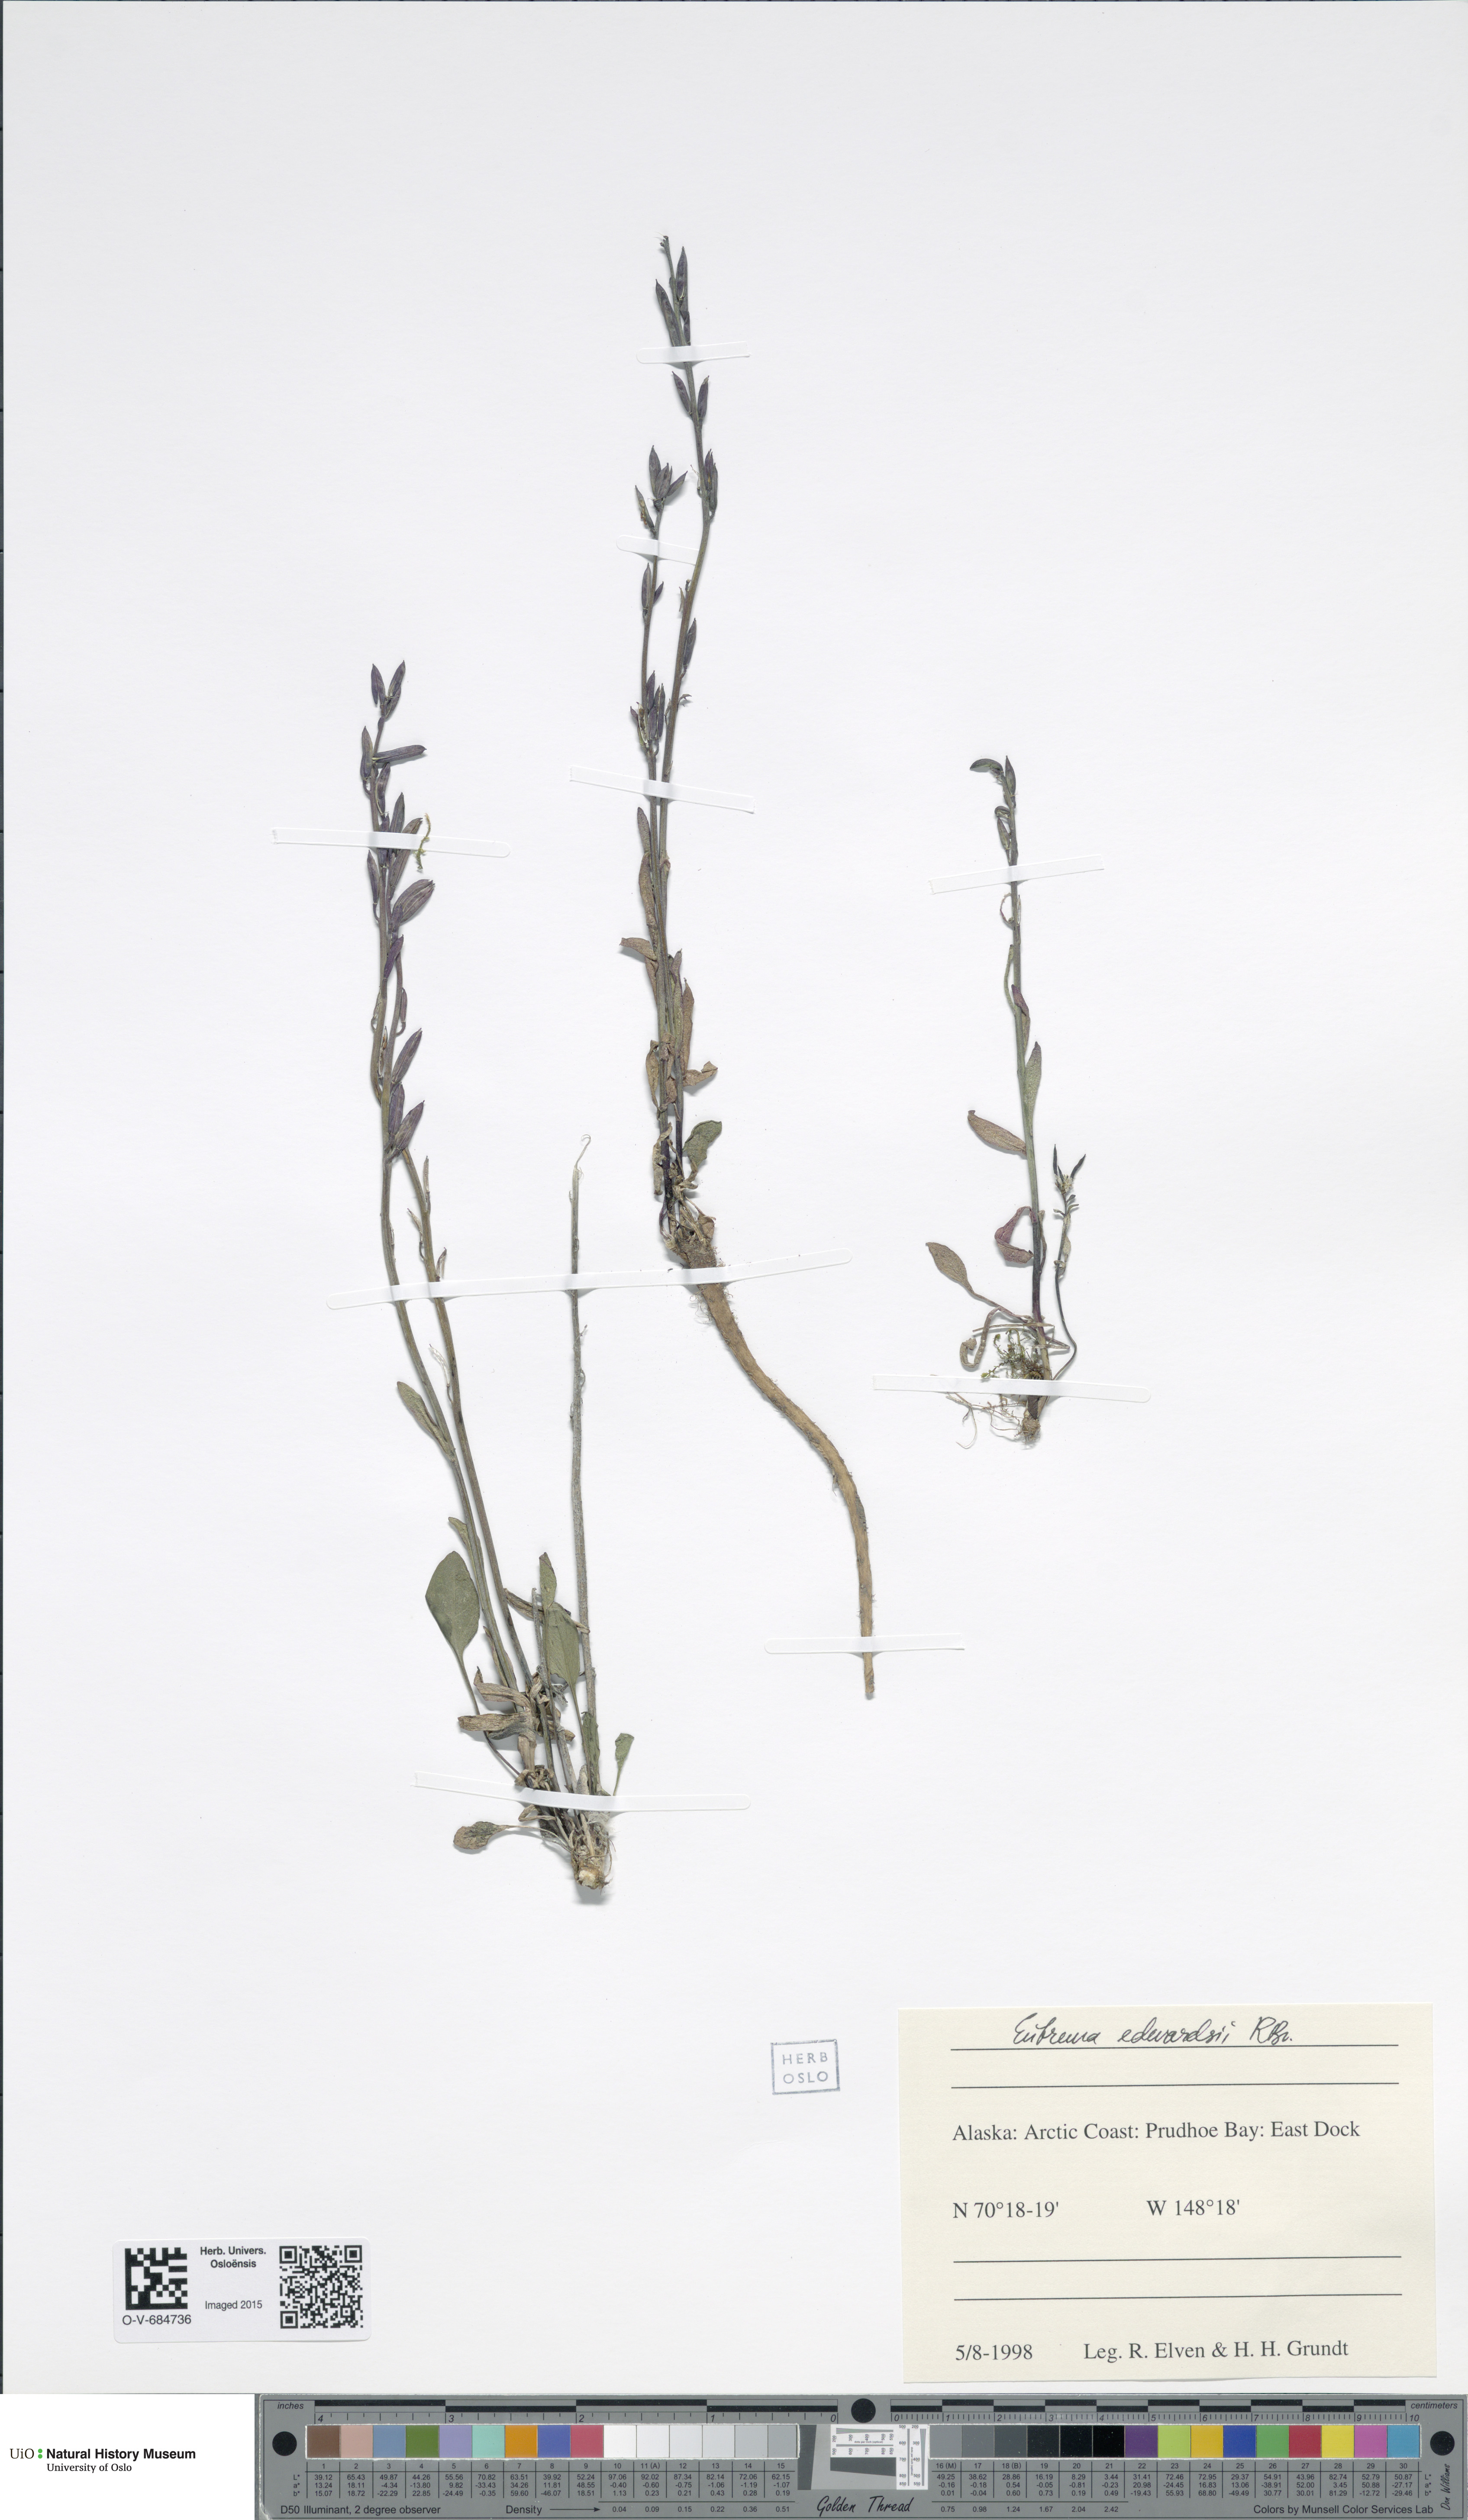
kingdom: Plantae
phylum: Tracheophyta
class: Magnoliopsida
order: Brassicales
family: Brassicaceae
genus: Eutrema
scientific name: Eutrema edwardsii
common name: Penland alpine fen mustard
